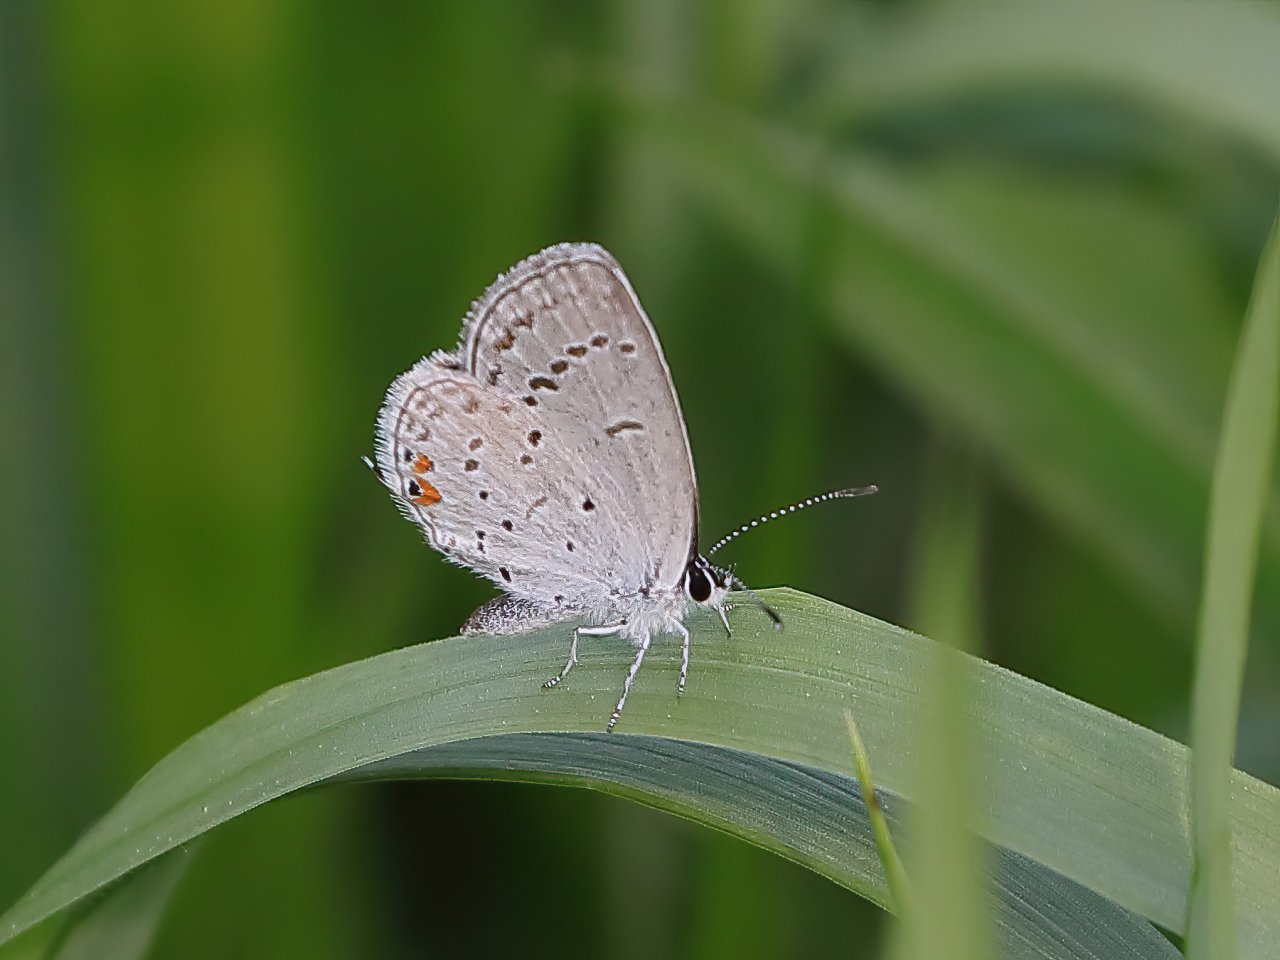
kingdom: Animalia
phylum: Arthropoda
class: Insecta
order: Lepidoptera
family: Lycaenidae
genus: Elkalyce
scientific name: Elkalyce comyntas
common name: Eastern Tailed-Blue
